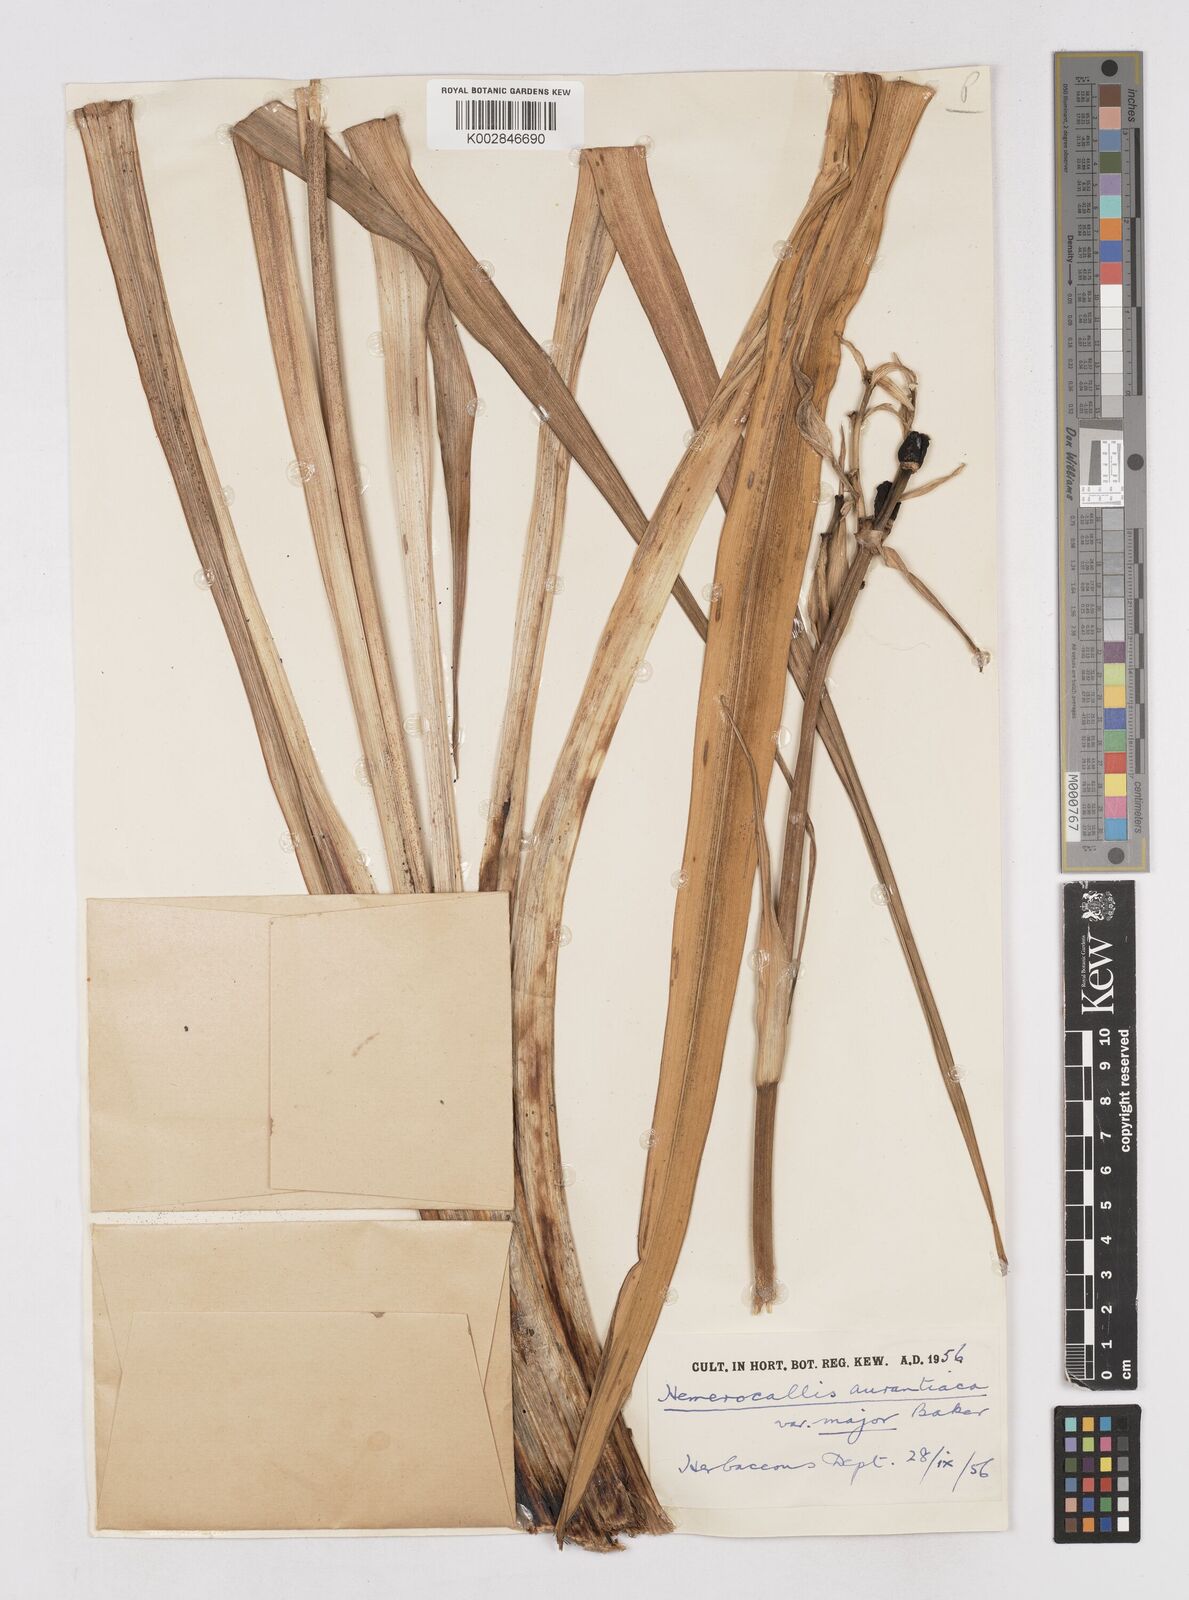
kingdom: Plantae
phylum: Tracheophyta
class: Liliopsida
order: Asparagales
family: Asphodelaceae
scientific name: Asphodelaceae
